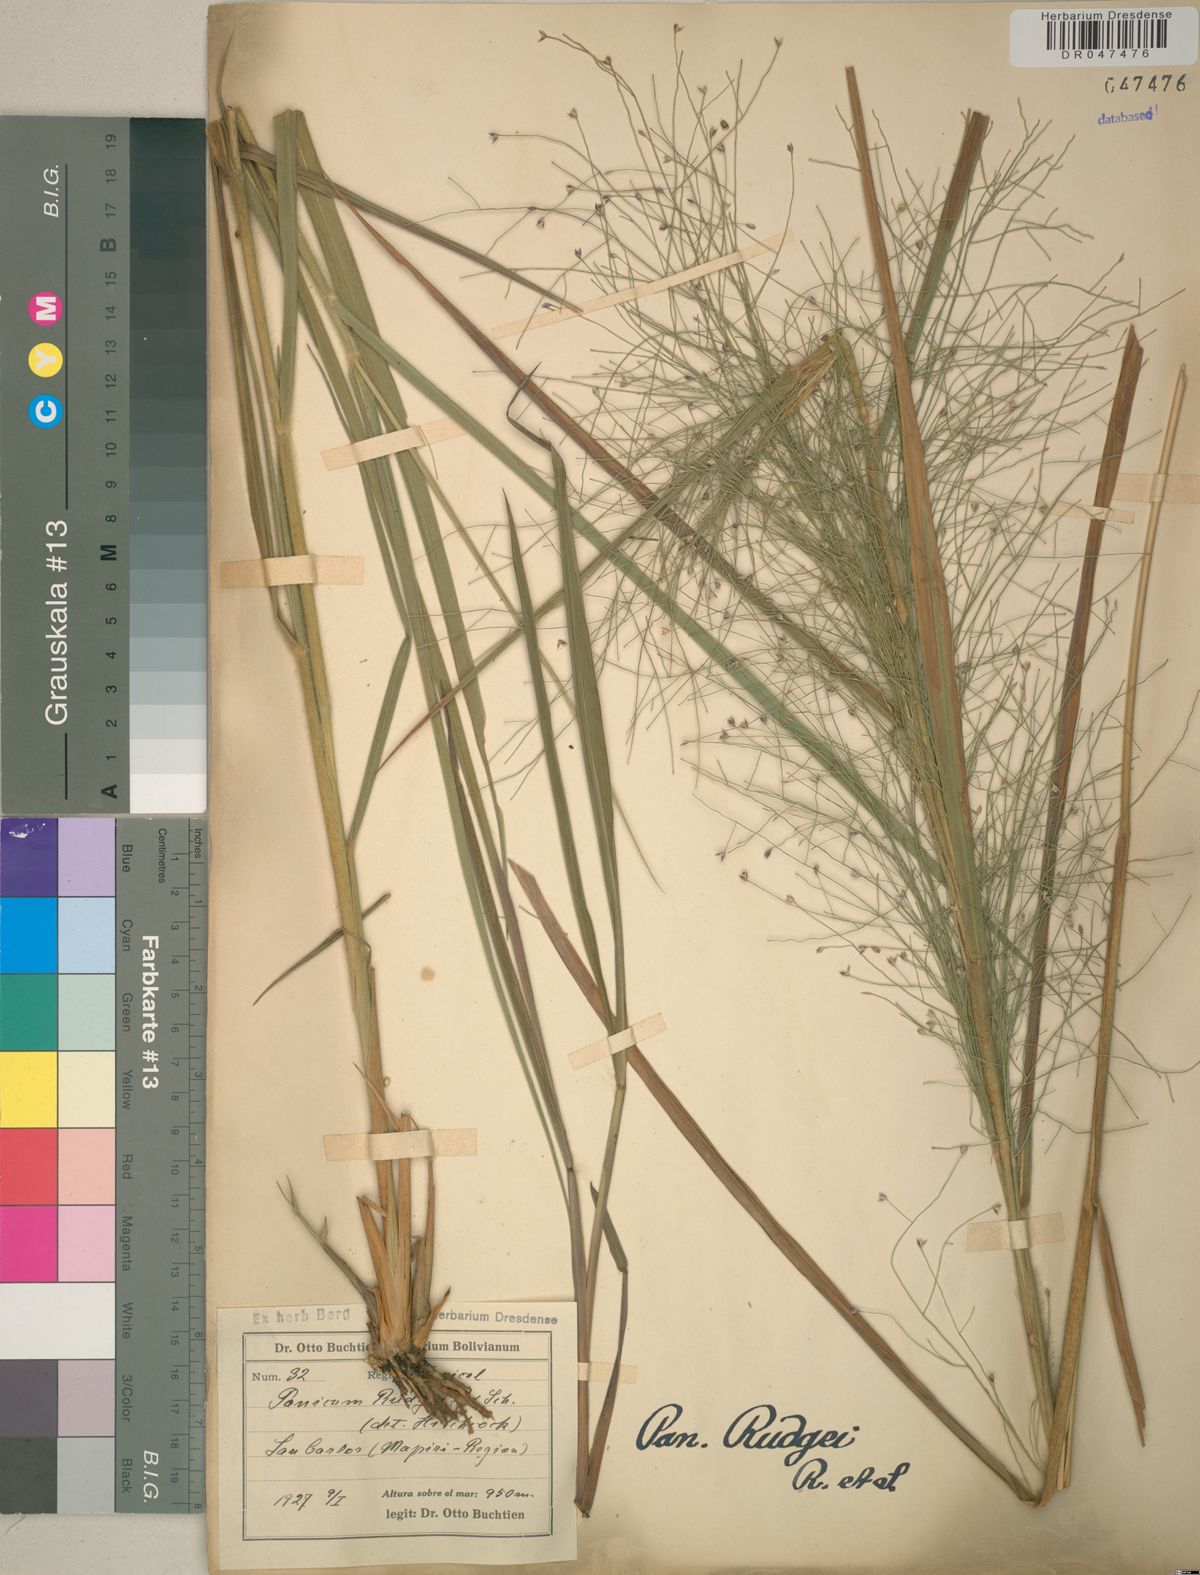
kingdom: Plantae
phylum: Tracheophyta
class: Liliopsida
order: Poales
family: Poaceae
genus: Panicum
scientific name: Panicum rudgei
